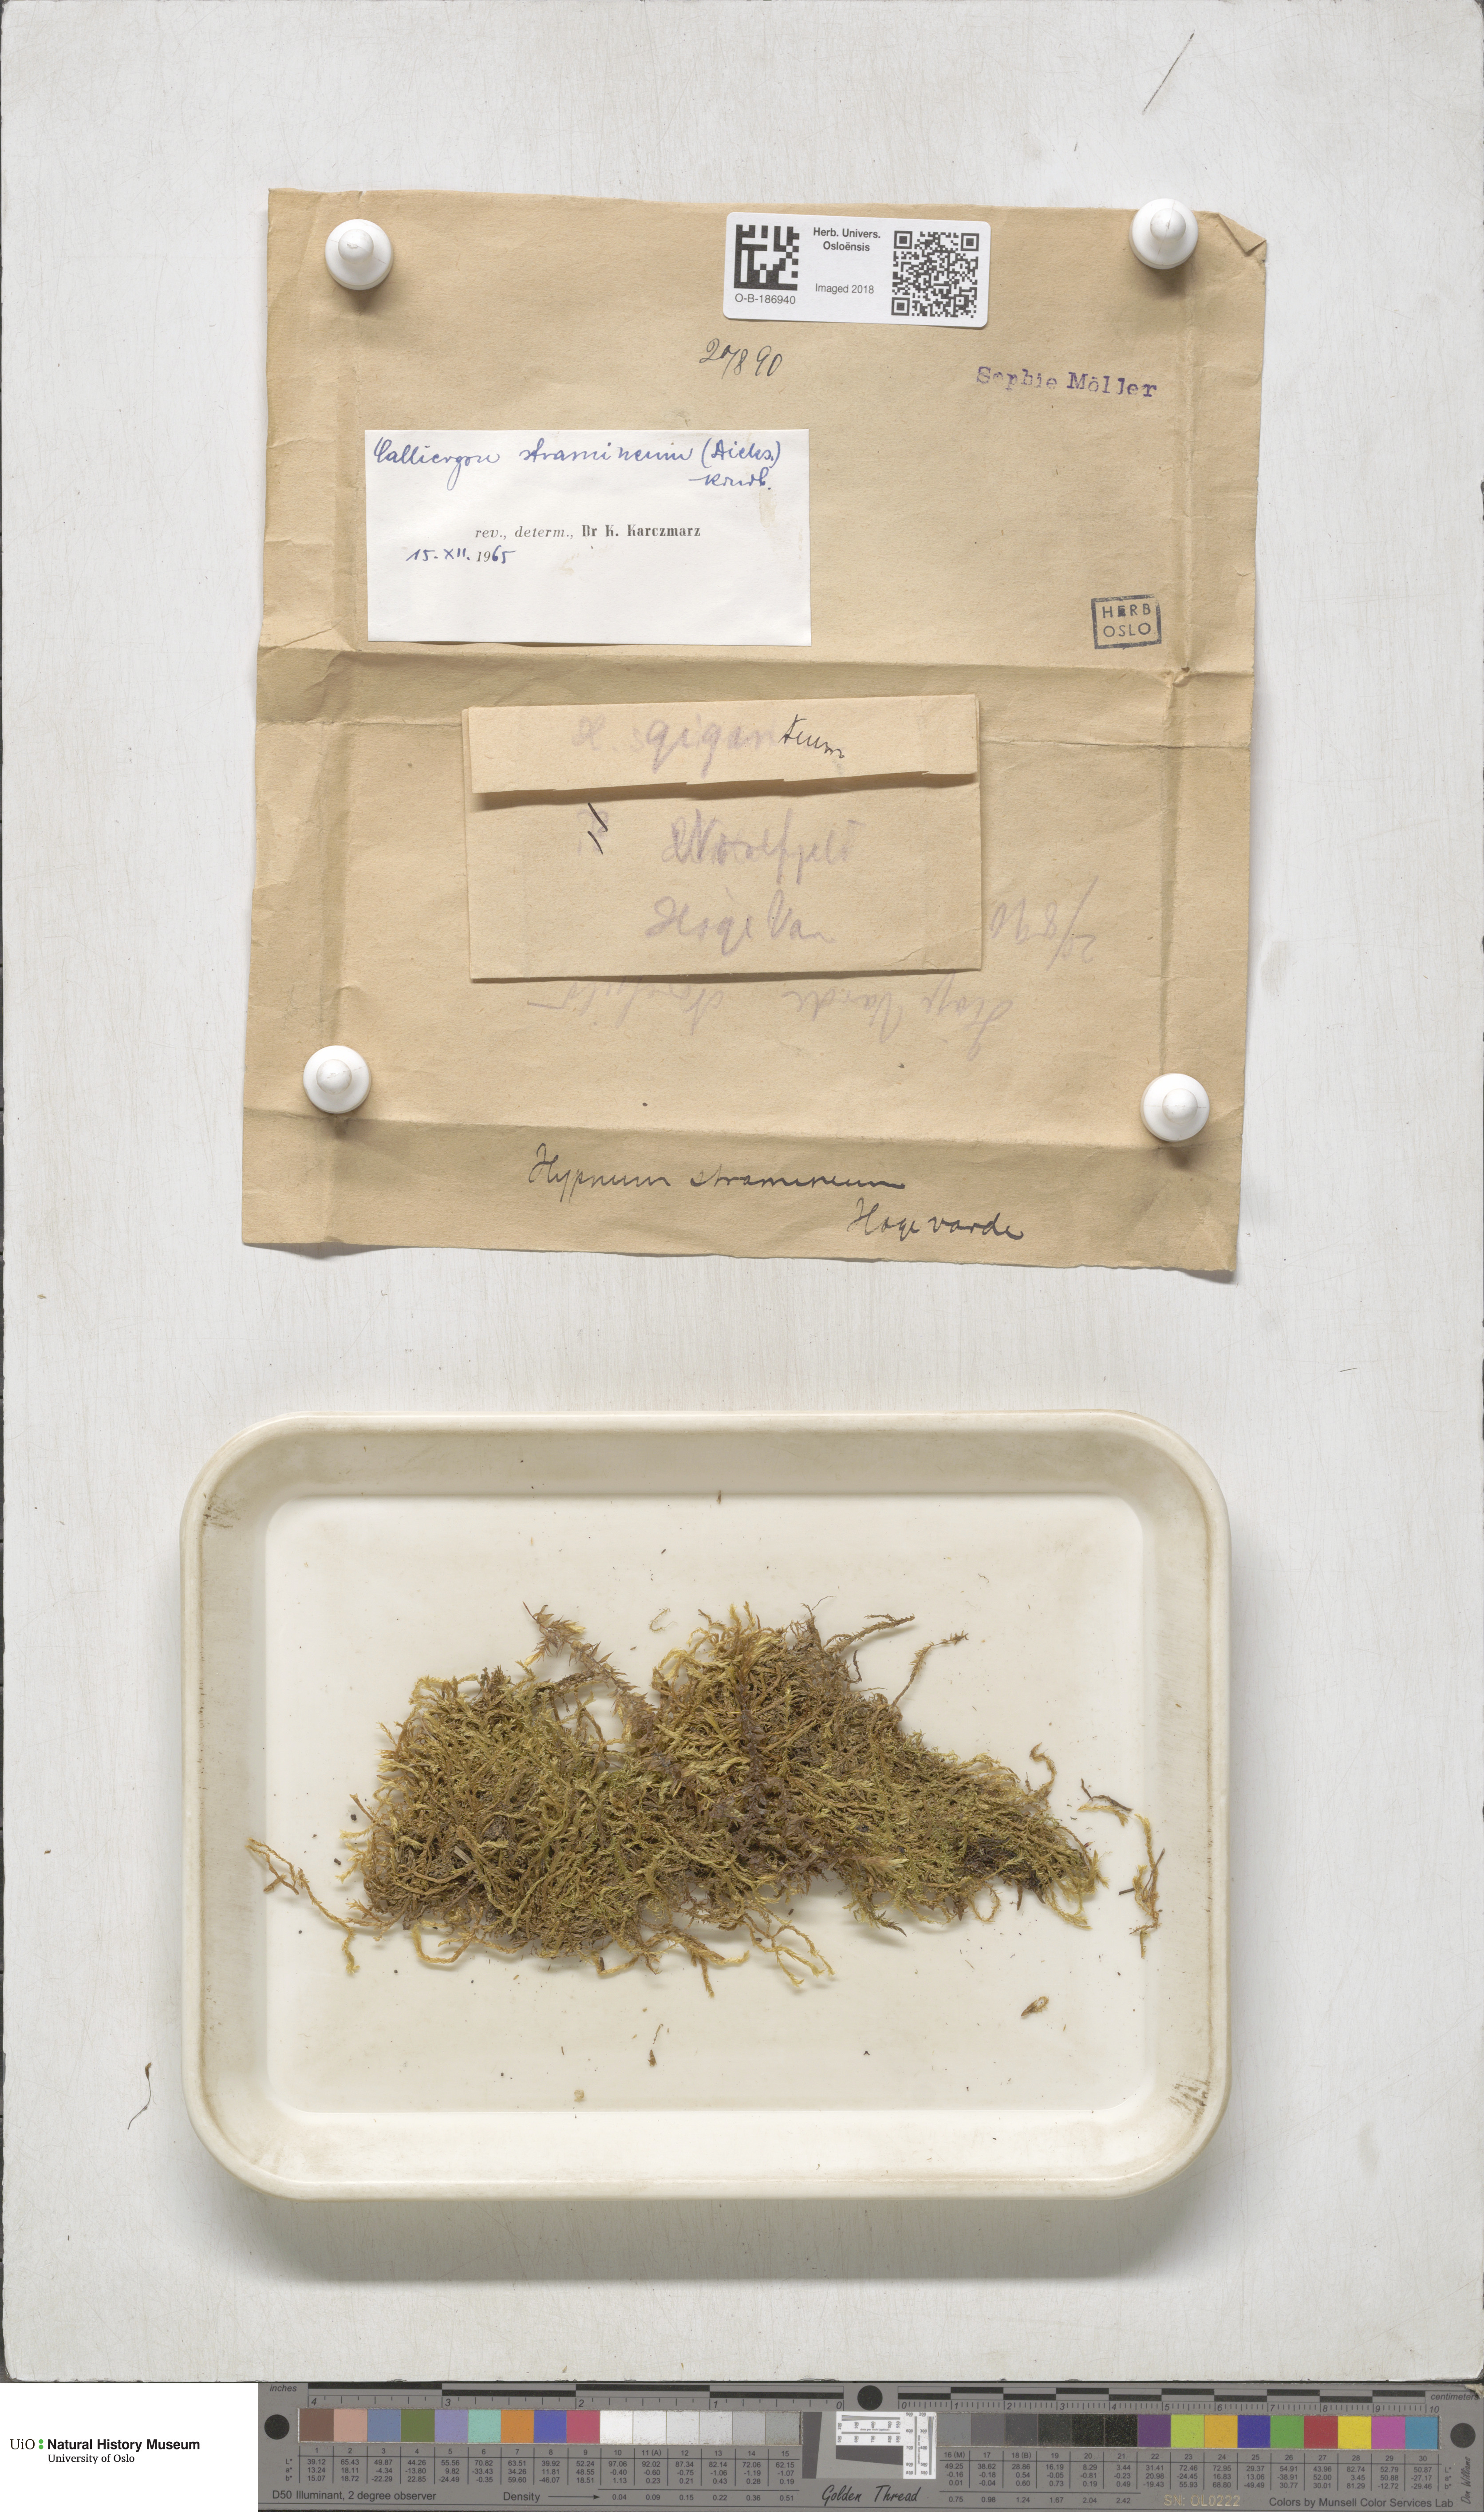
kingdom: Plantae
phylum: Bryophyta
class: Bryopsida
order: Hypnales
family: Calliergonaceae
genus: Straminergon
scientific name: Straminergon stramineum
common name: Straw moss
